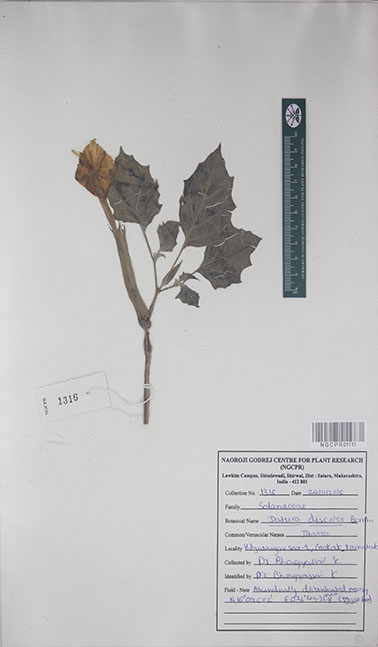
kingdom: Plantae
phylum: Tracheophyta
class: Magnoliopsida
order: Solanales
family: Solanaceae
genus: Datura
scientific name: Datura discolor
